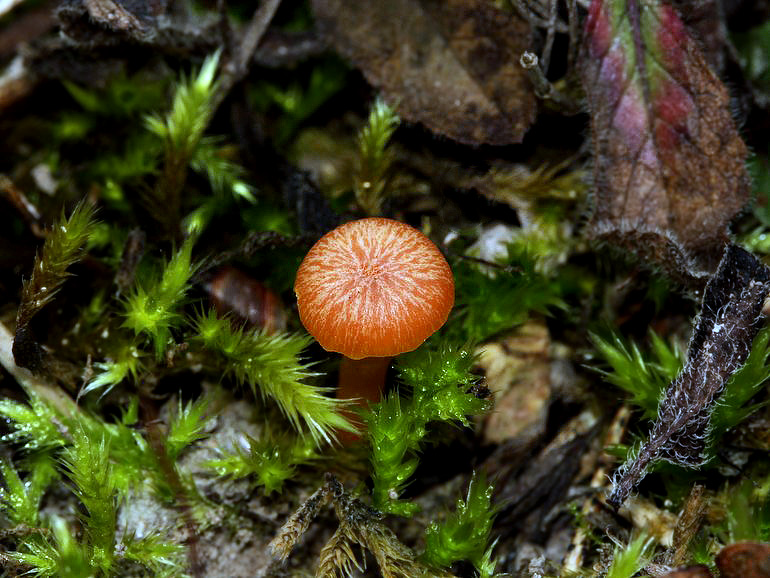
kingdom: Fungi
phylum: Basidiomycota
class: Agaricomycetes
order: Agaricales
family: Hygrophoraceae
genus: Hygrocybe
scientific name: Hygrocybe calciphila
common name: kalk-vokshat
